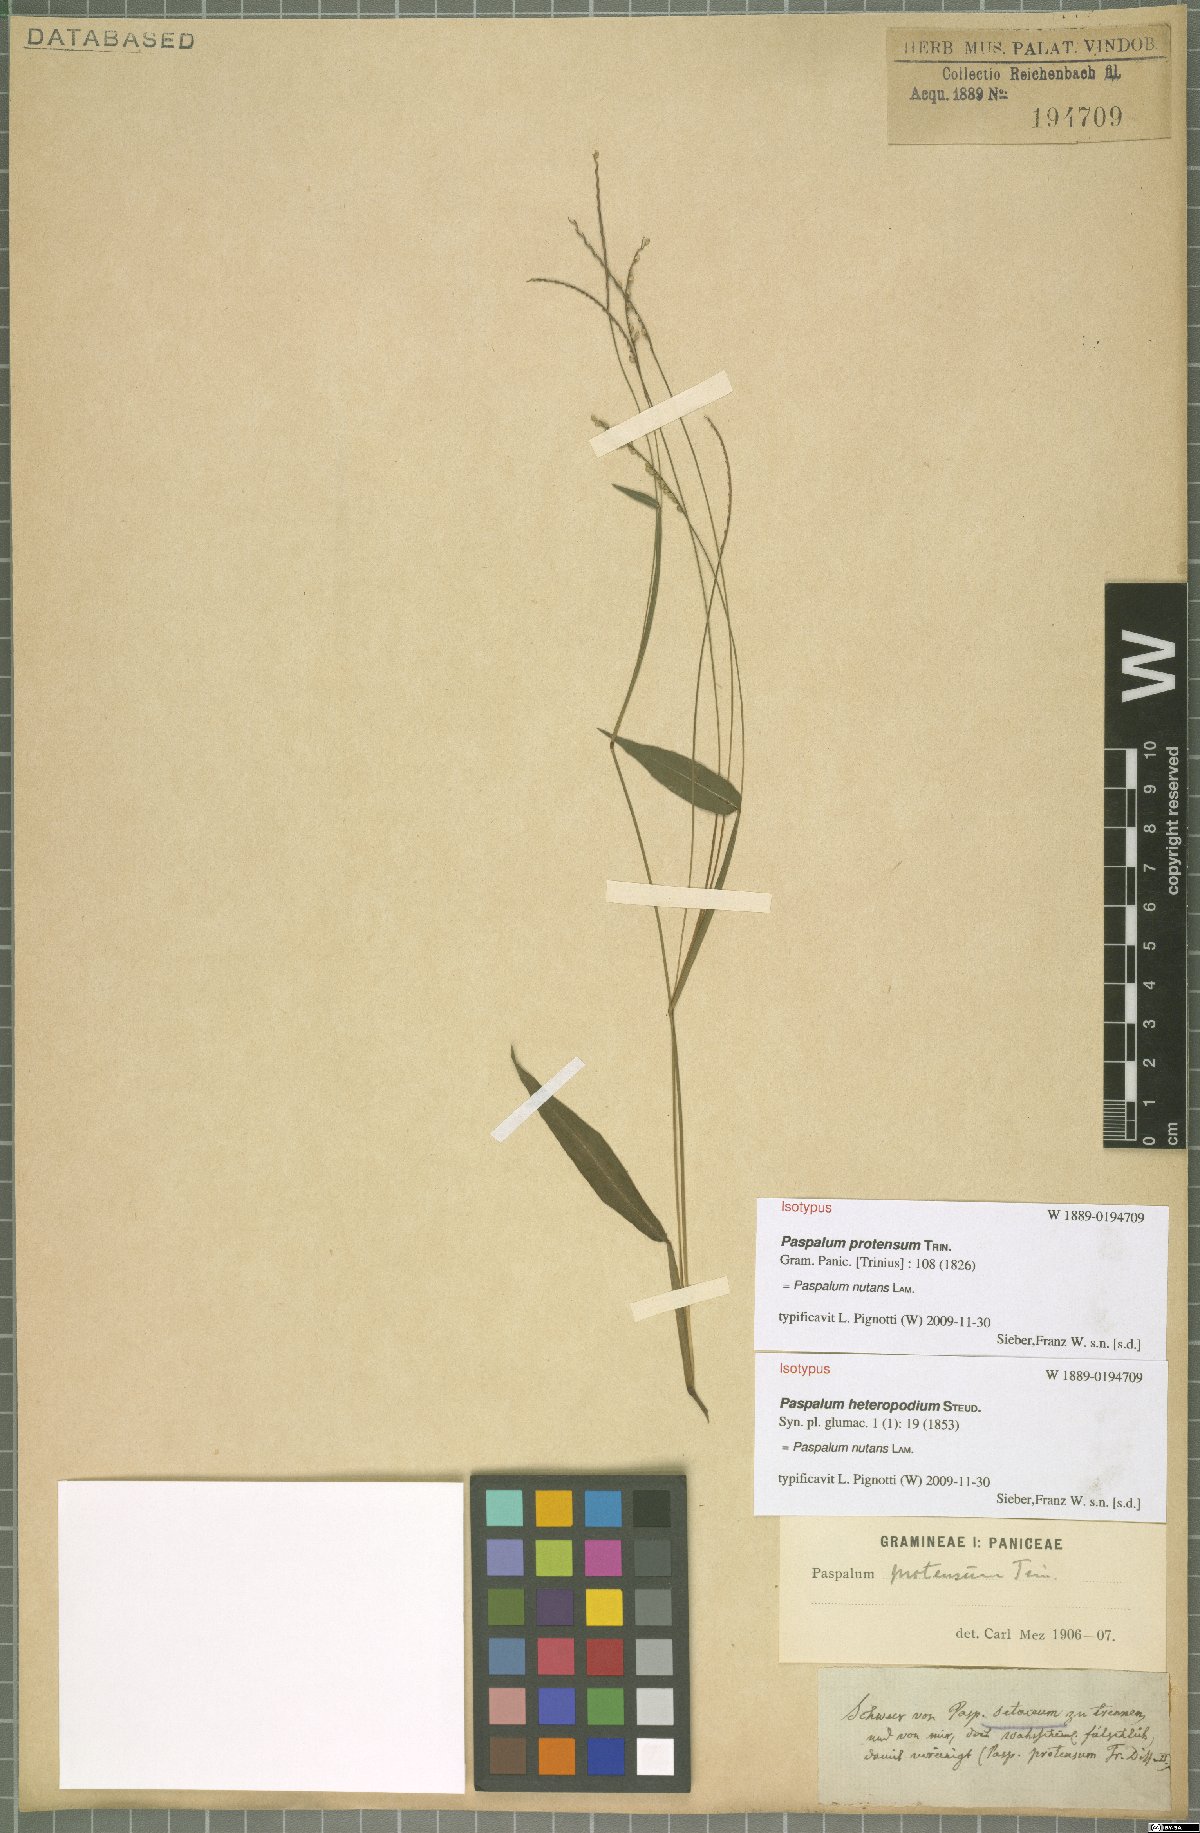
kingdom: Plantae
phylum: Tracheophyta
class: Liliopsida
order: Poales
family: Poaceae
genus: Paspalum
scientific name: Paspalum nutans
